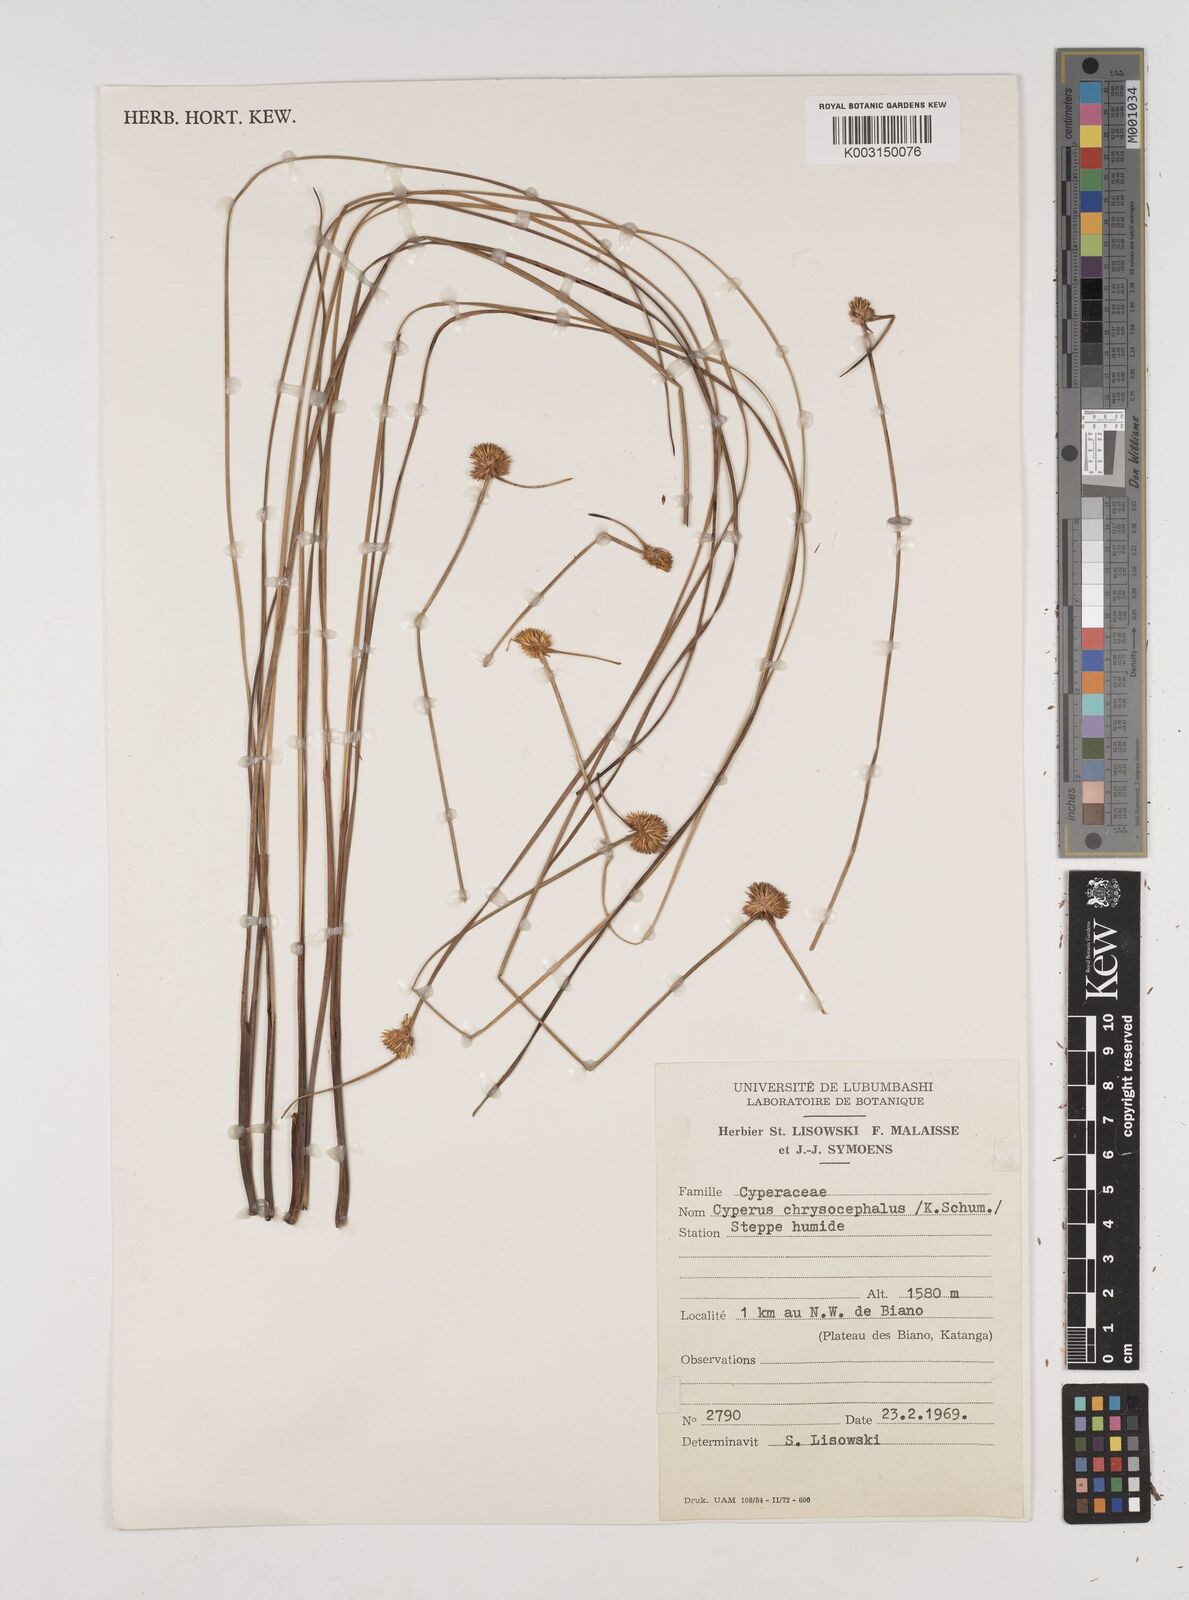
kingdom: Plantae
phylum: Tracheophyta
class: Liliopsida
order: Poales
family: Cyperaceae
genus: Cyperus
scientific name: Cyperus chrysocephalus
